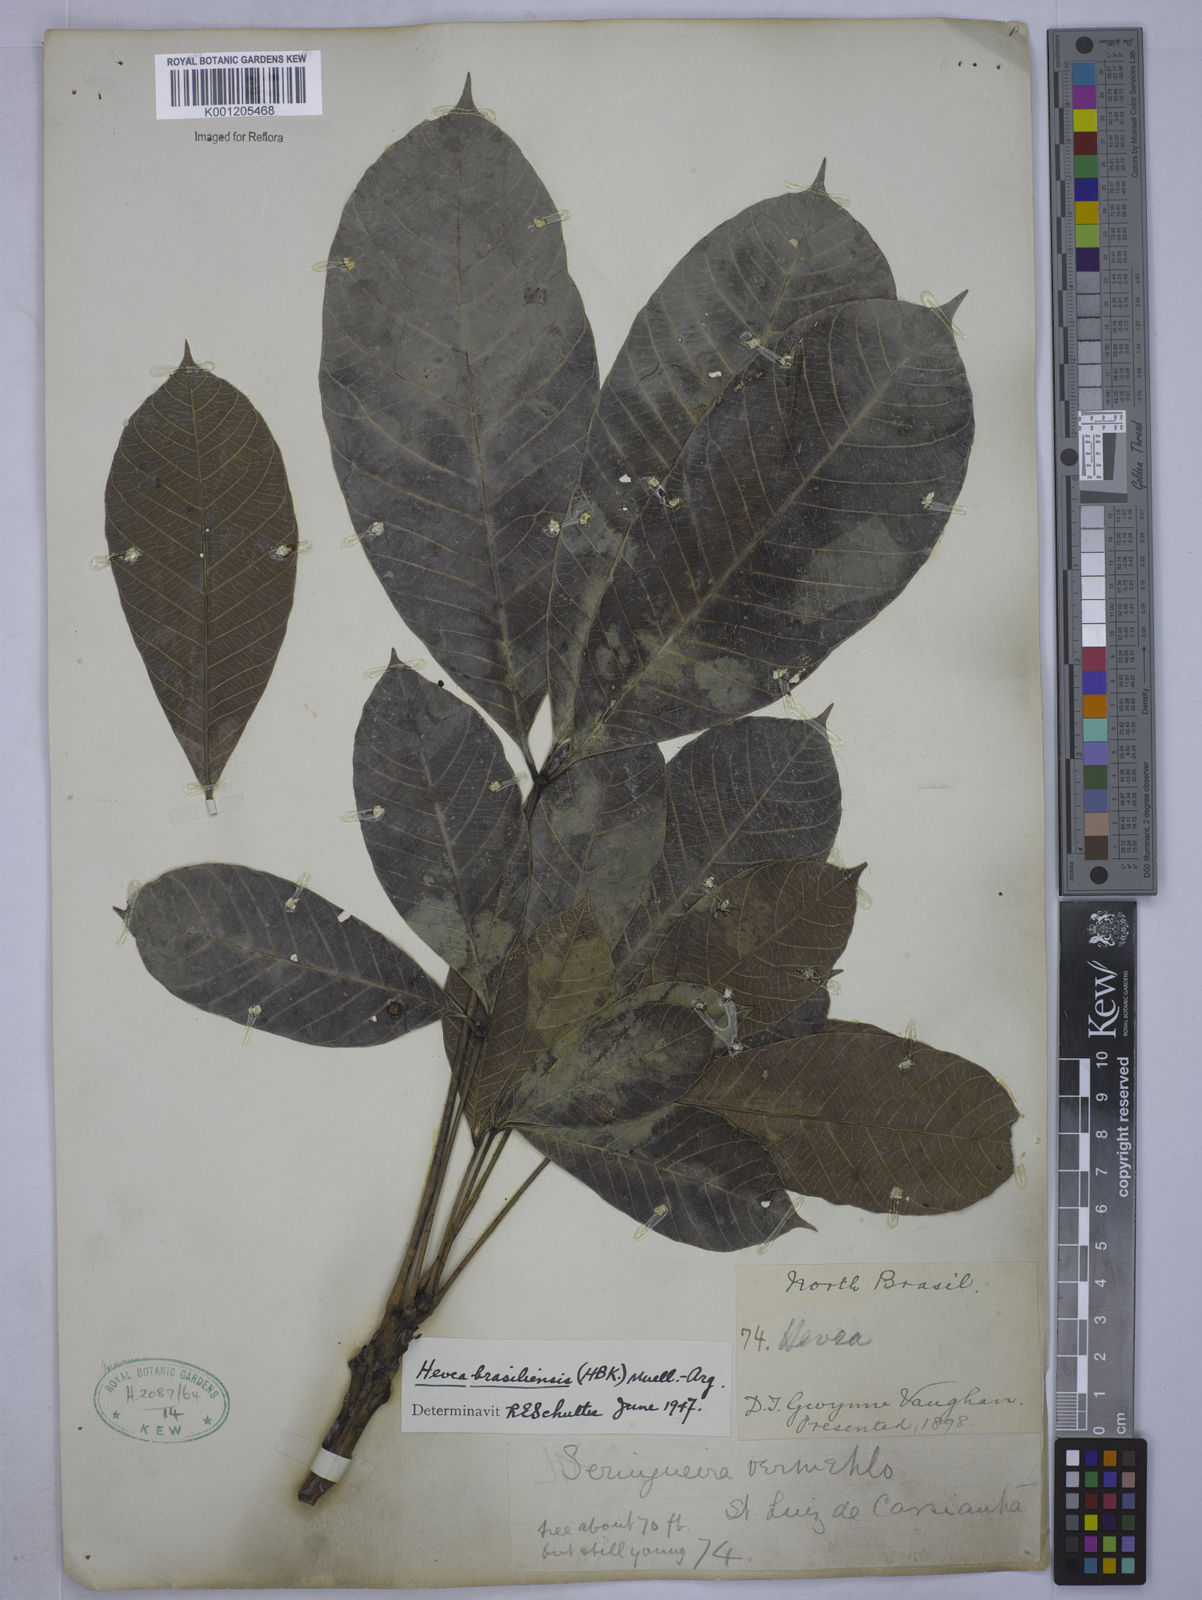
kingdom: Plantae
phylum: Tracheophyta
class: Magnoliopsida
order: Malpighiales
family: Euphorbiaceae
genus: Hevea
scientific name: Hevea
